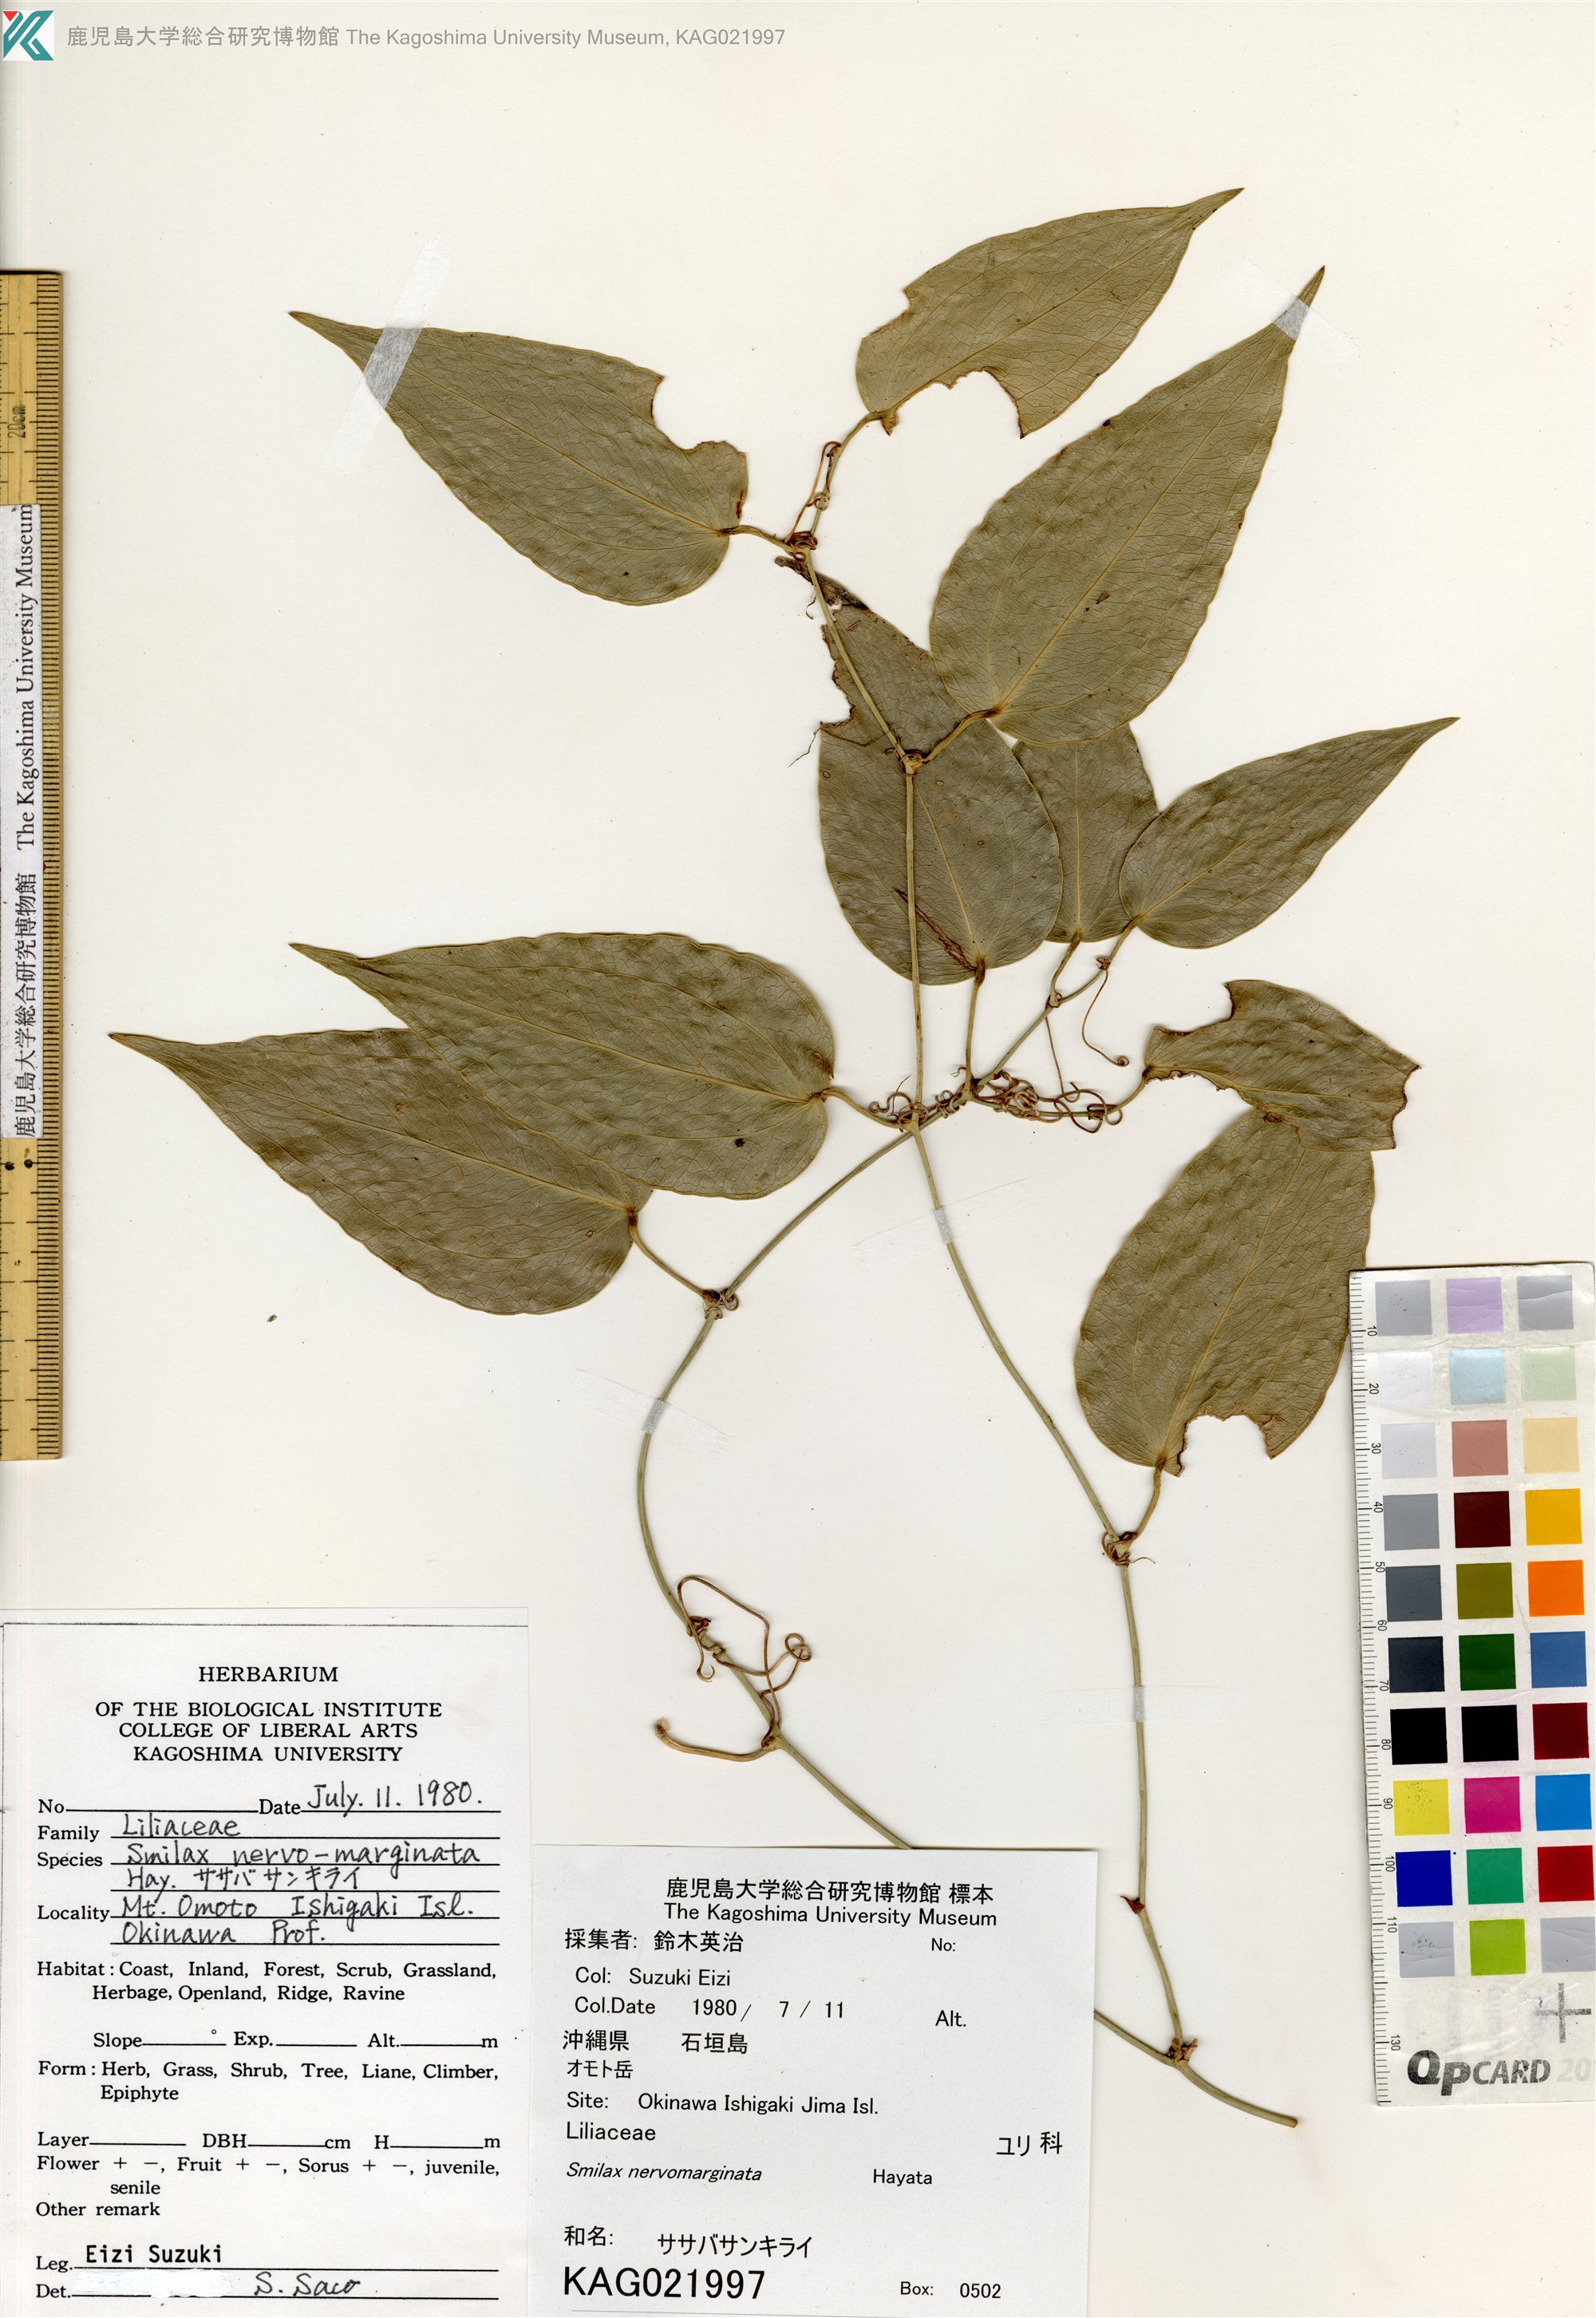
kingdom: Plantae
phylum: Tracheophyta
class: Liliopsida
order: Liliales
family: Smilacaceae
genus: Smilax
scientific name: Smilax nervomarginata
